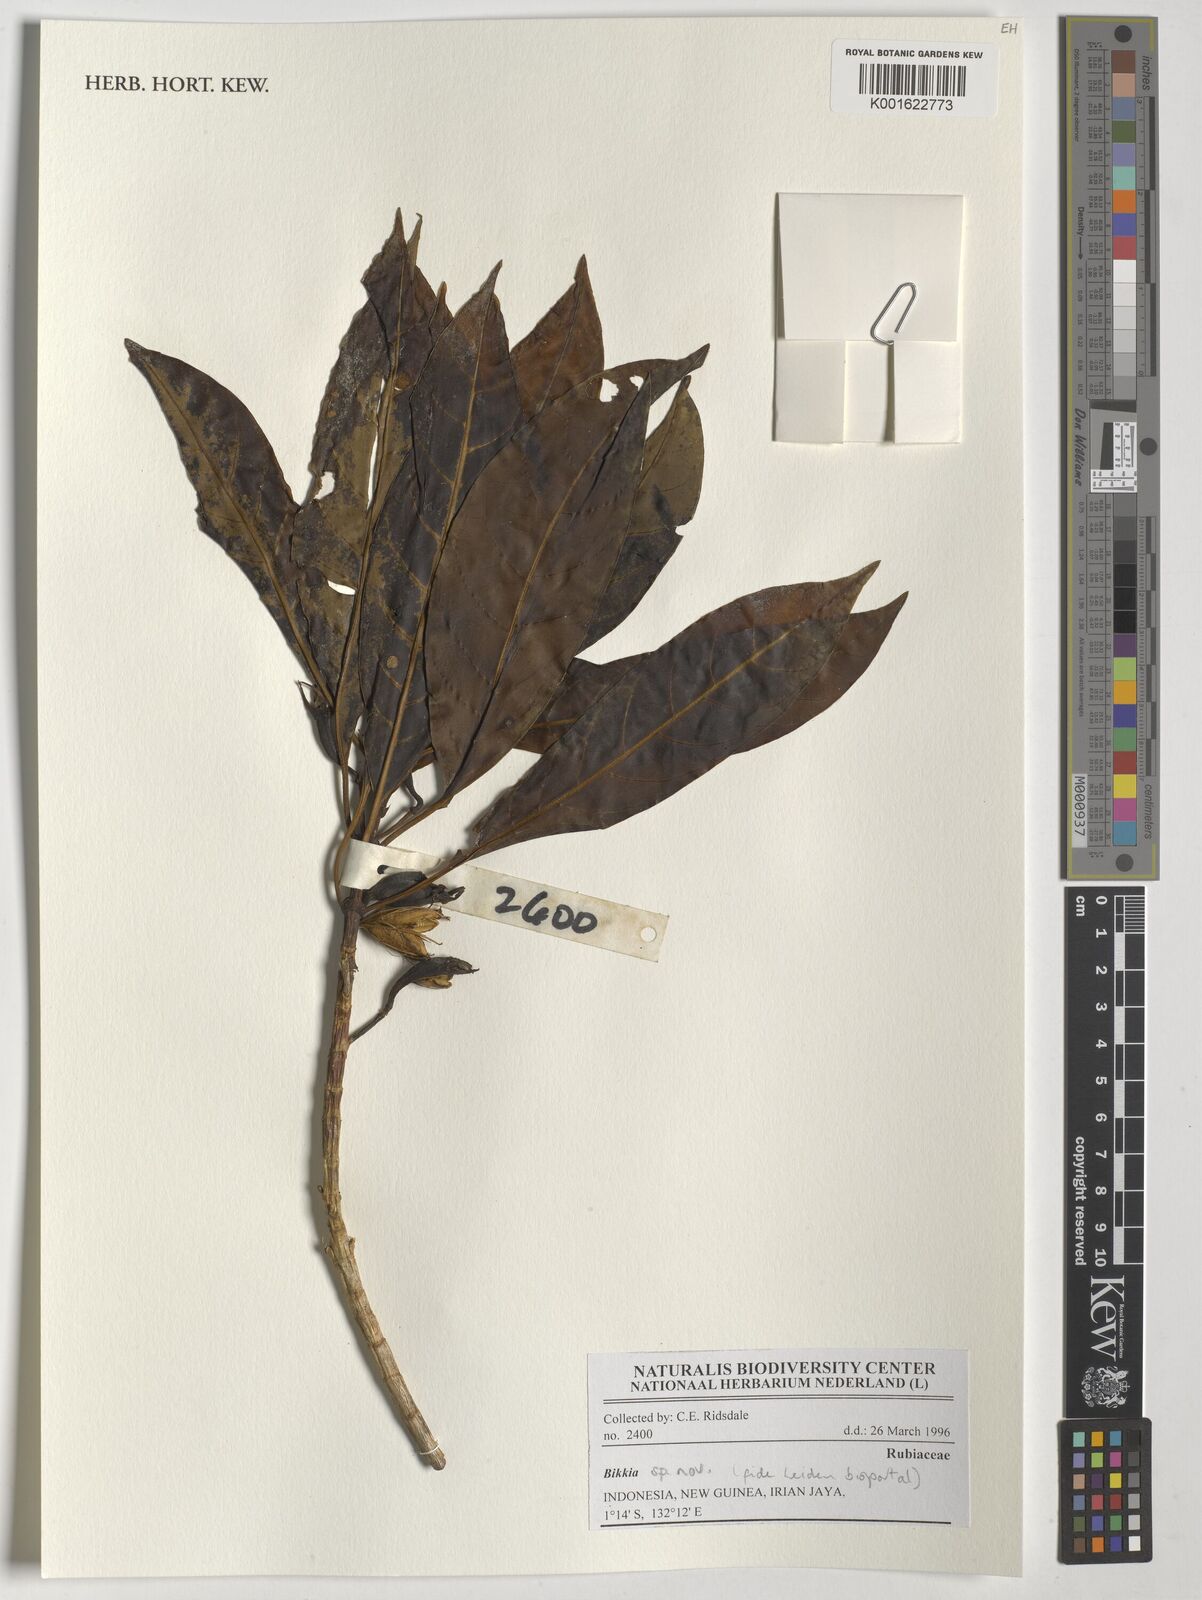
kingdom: Plantae
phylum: Tracheophyta
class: Magnoliopsida
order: Gentianales
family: Rubiaceae
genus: Bikkia
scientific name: Bikkia
